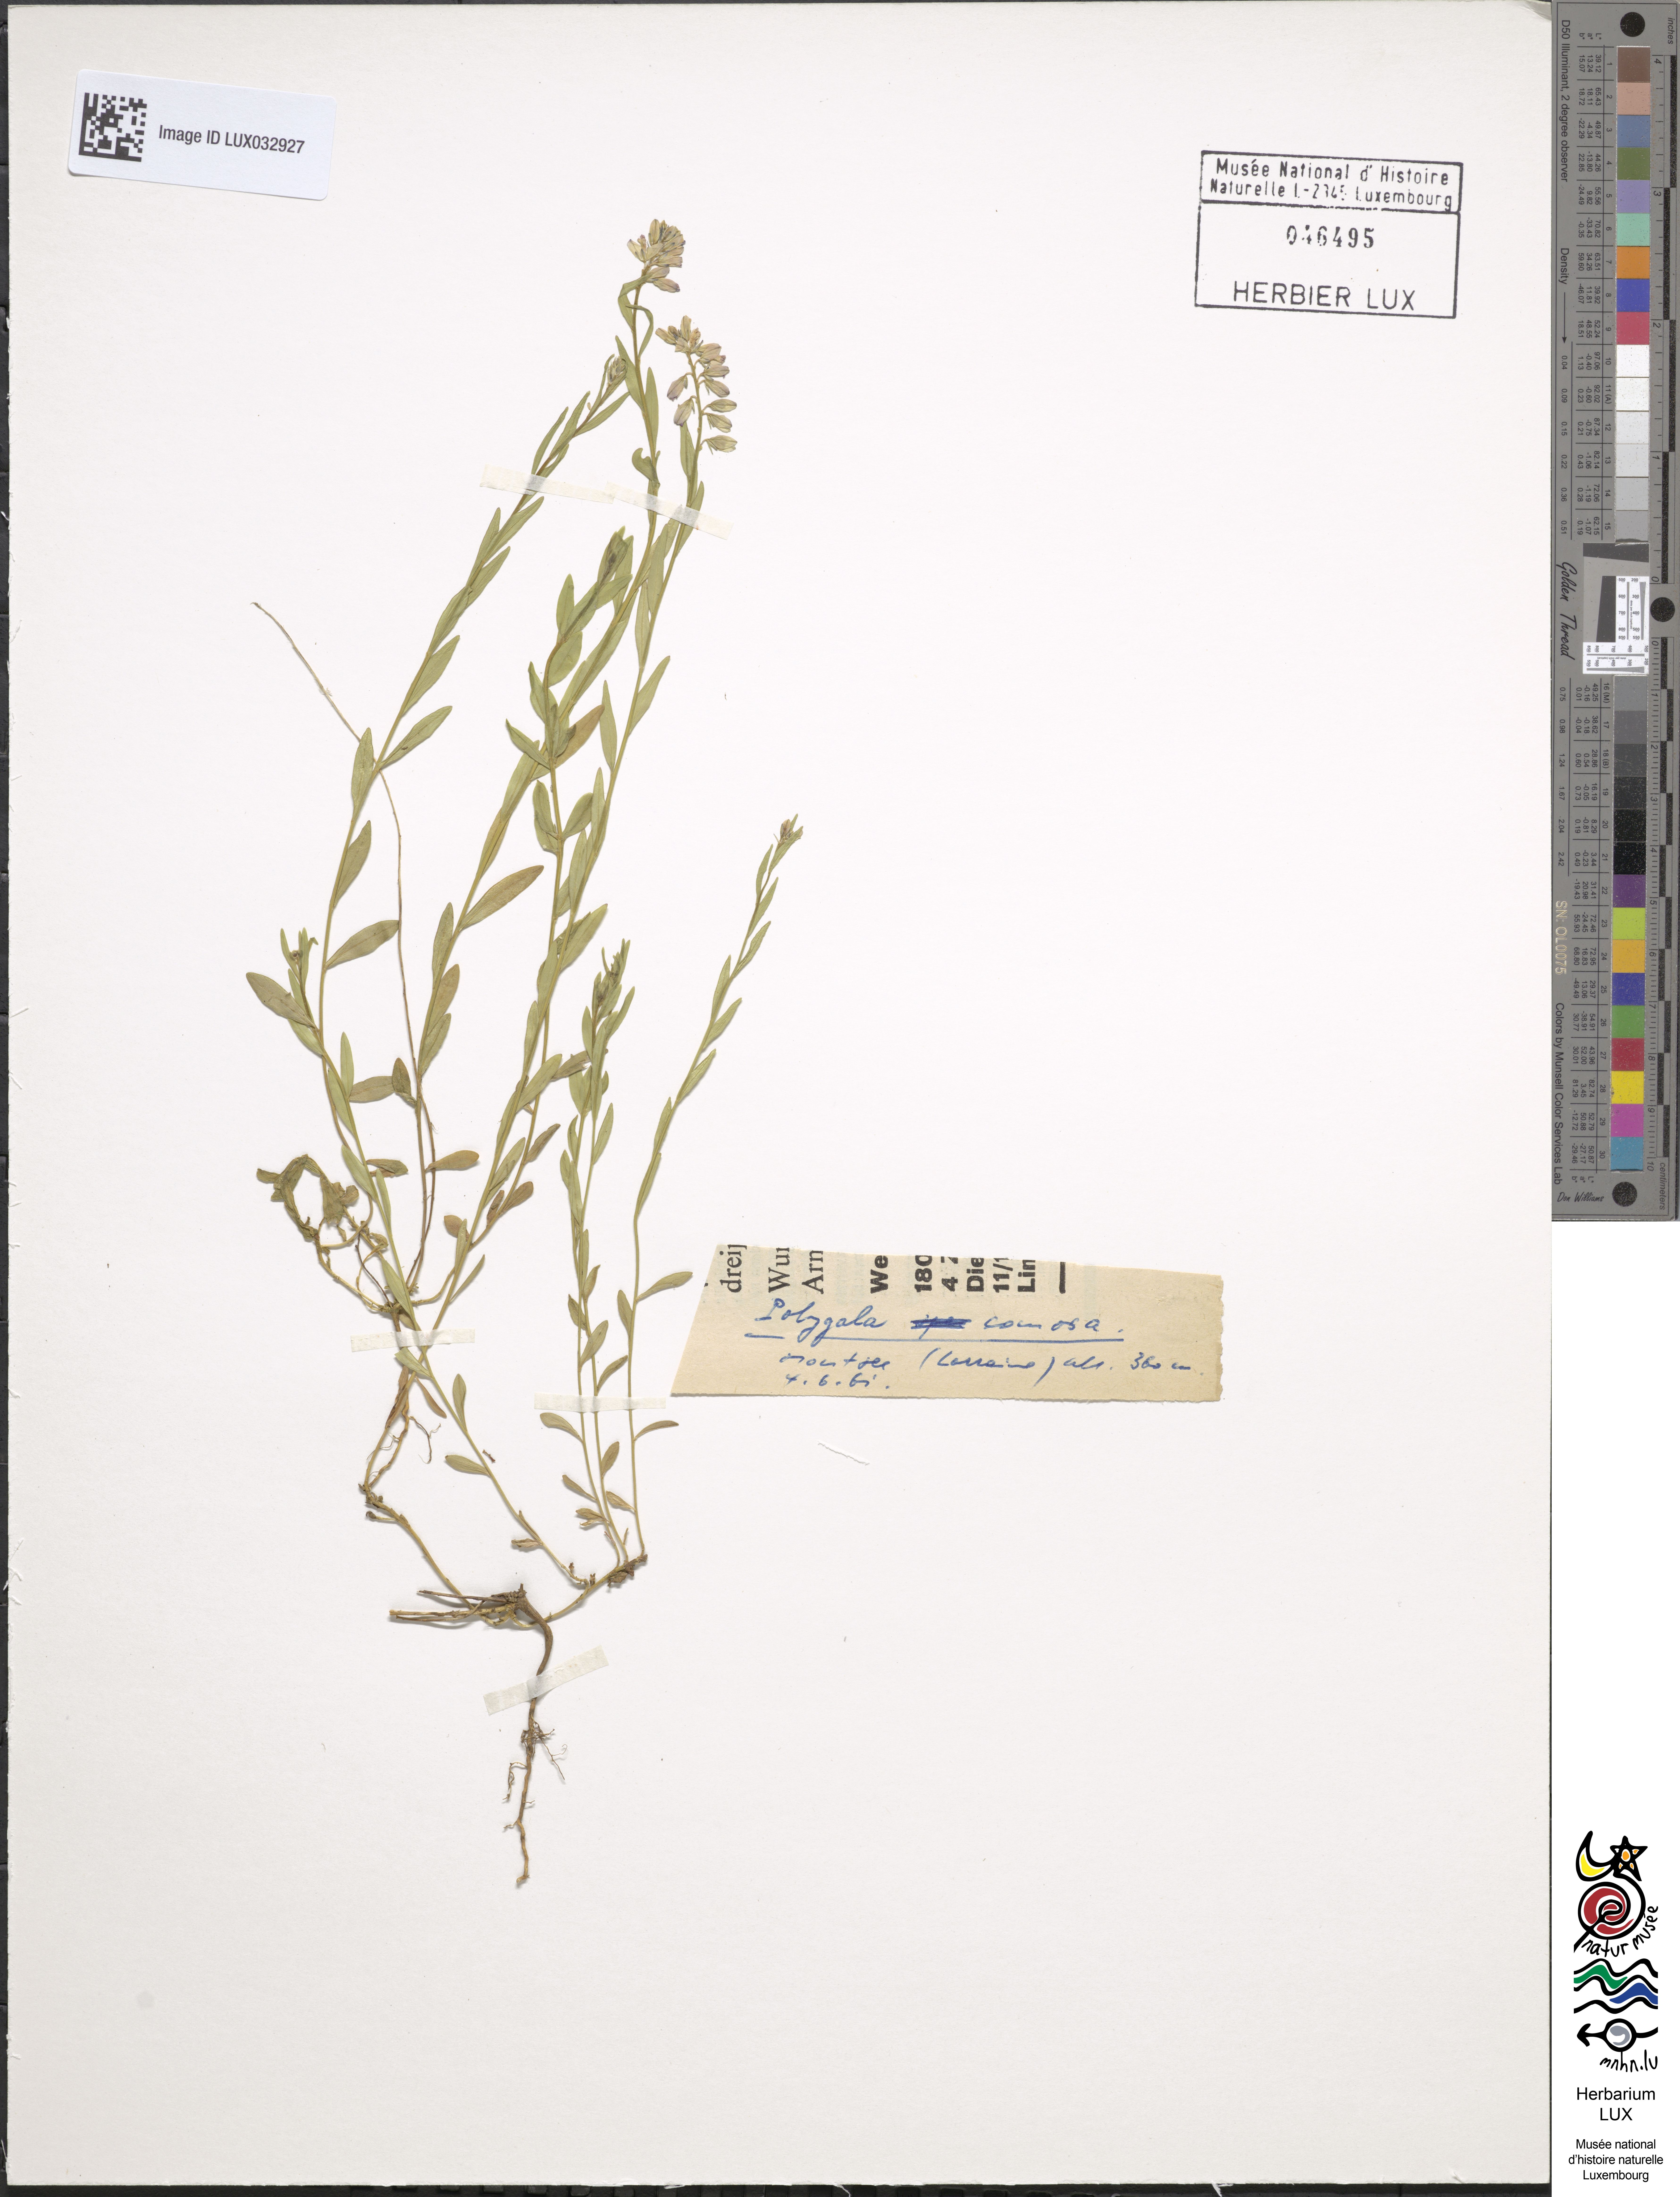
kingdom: Plantae
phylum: Tracheophyta
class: Magnoliopsida
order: Fabales
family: Polygalaceae
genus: Polygala
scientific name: Polygala comosa
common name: Tufted milkwort
